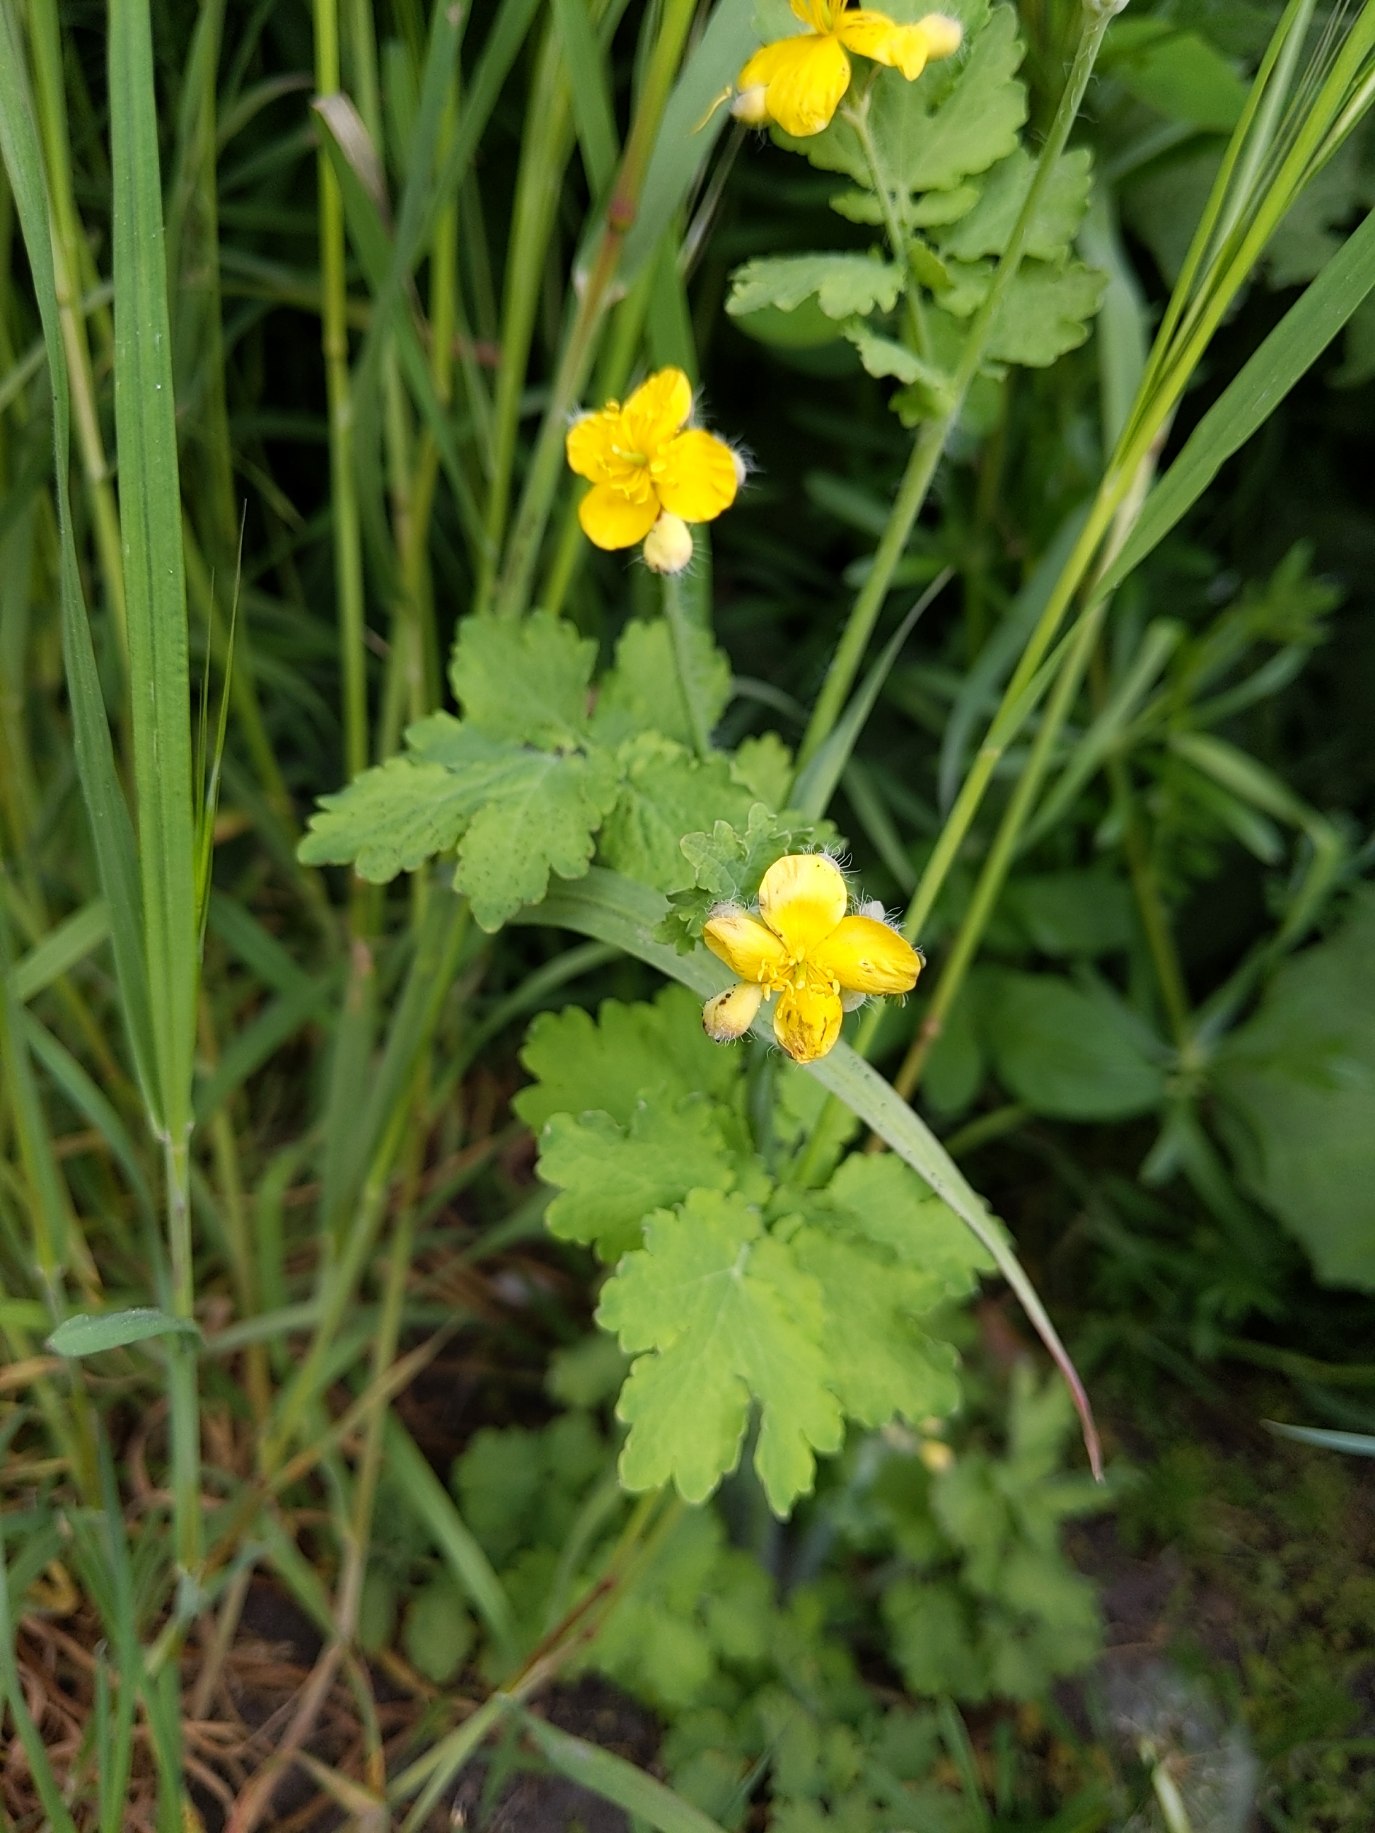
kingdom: Plantae
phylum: Tracheophyta
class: Magnoliopsida
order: Ranunculales
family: Papaveraceae
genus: Chelidonium
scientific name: Chelidonium majus
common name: Svaleurt
